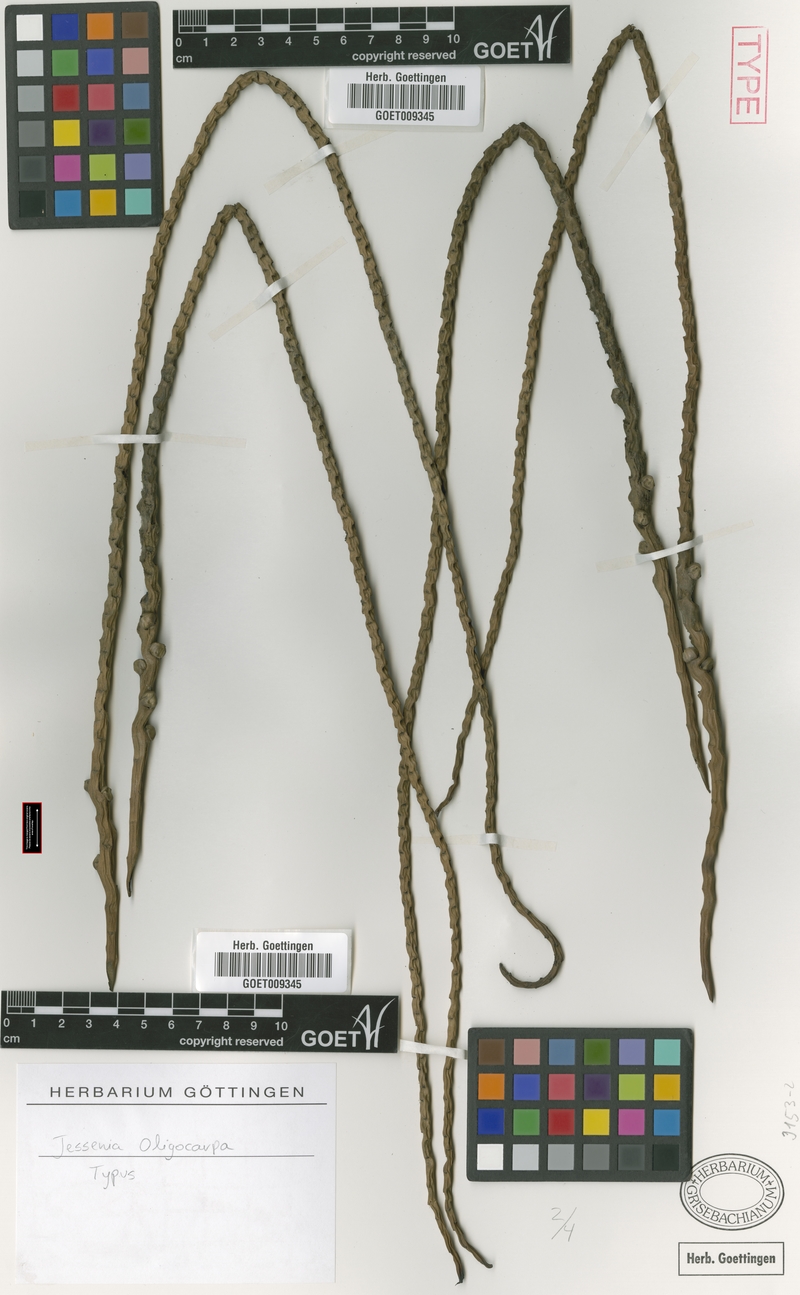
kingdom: Plantae
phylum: Tracheophyta
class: Liliopsida
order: Arecales
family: Arecaceae
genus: Oenocarpus
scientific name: Oenocarpus bataua
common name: Bataua palm
